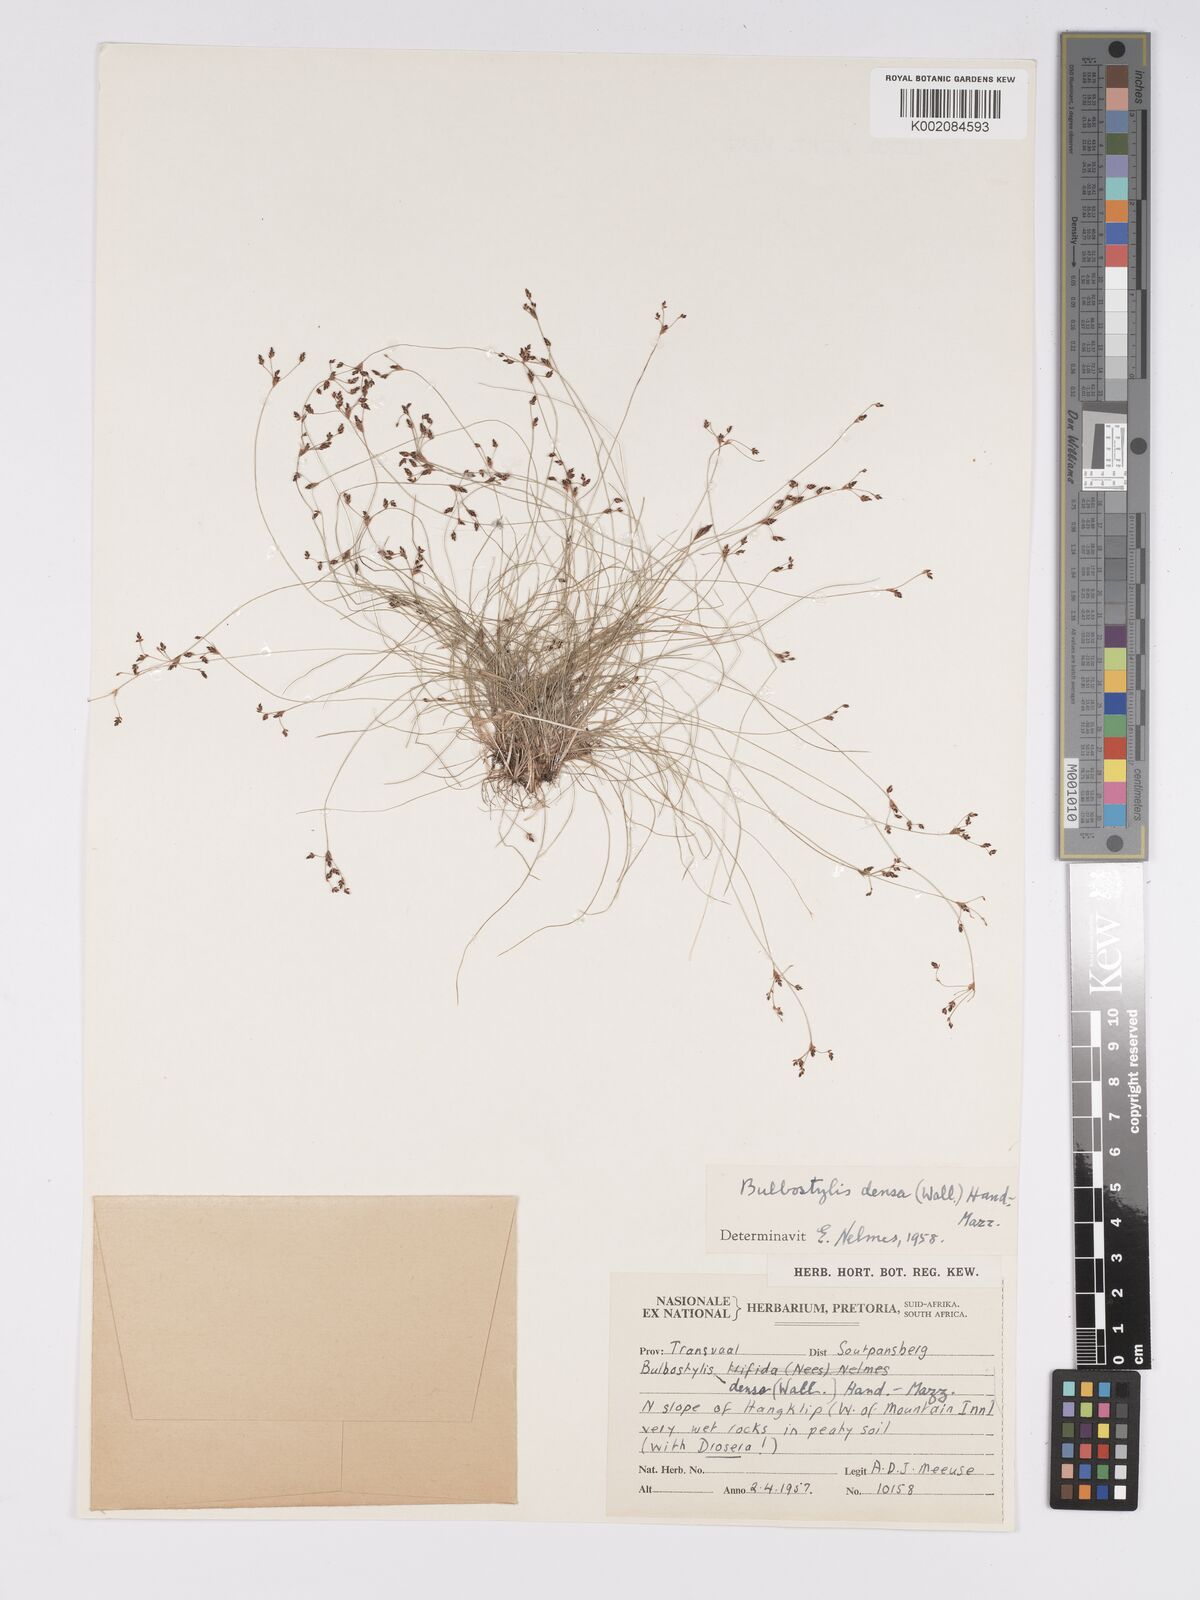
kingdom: Plantae
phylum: Tracheophyta
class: Liliopsida
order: Poales
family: Cyperaceae
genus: Bulbostylis
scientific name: Bulbostylis densa
